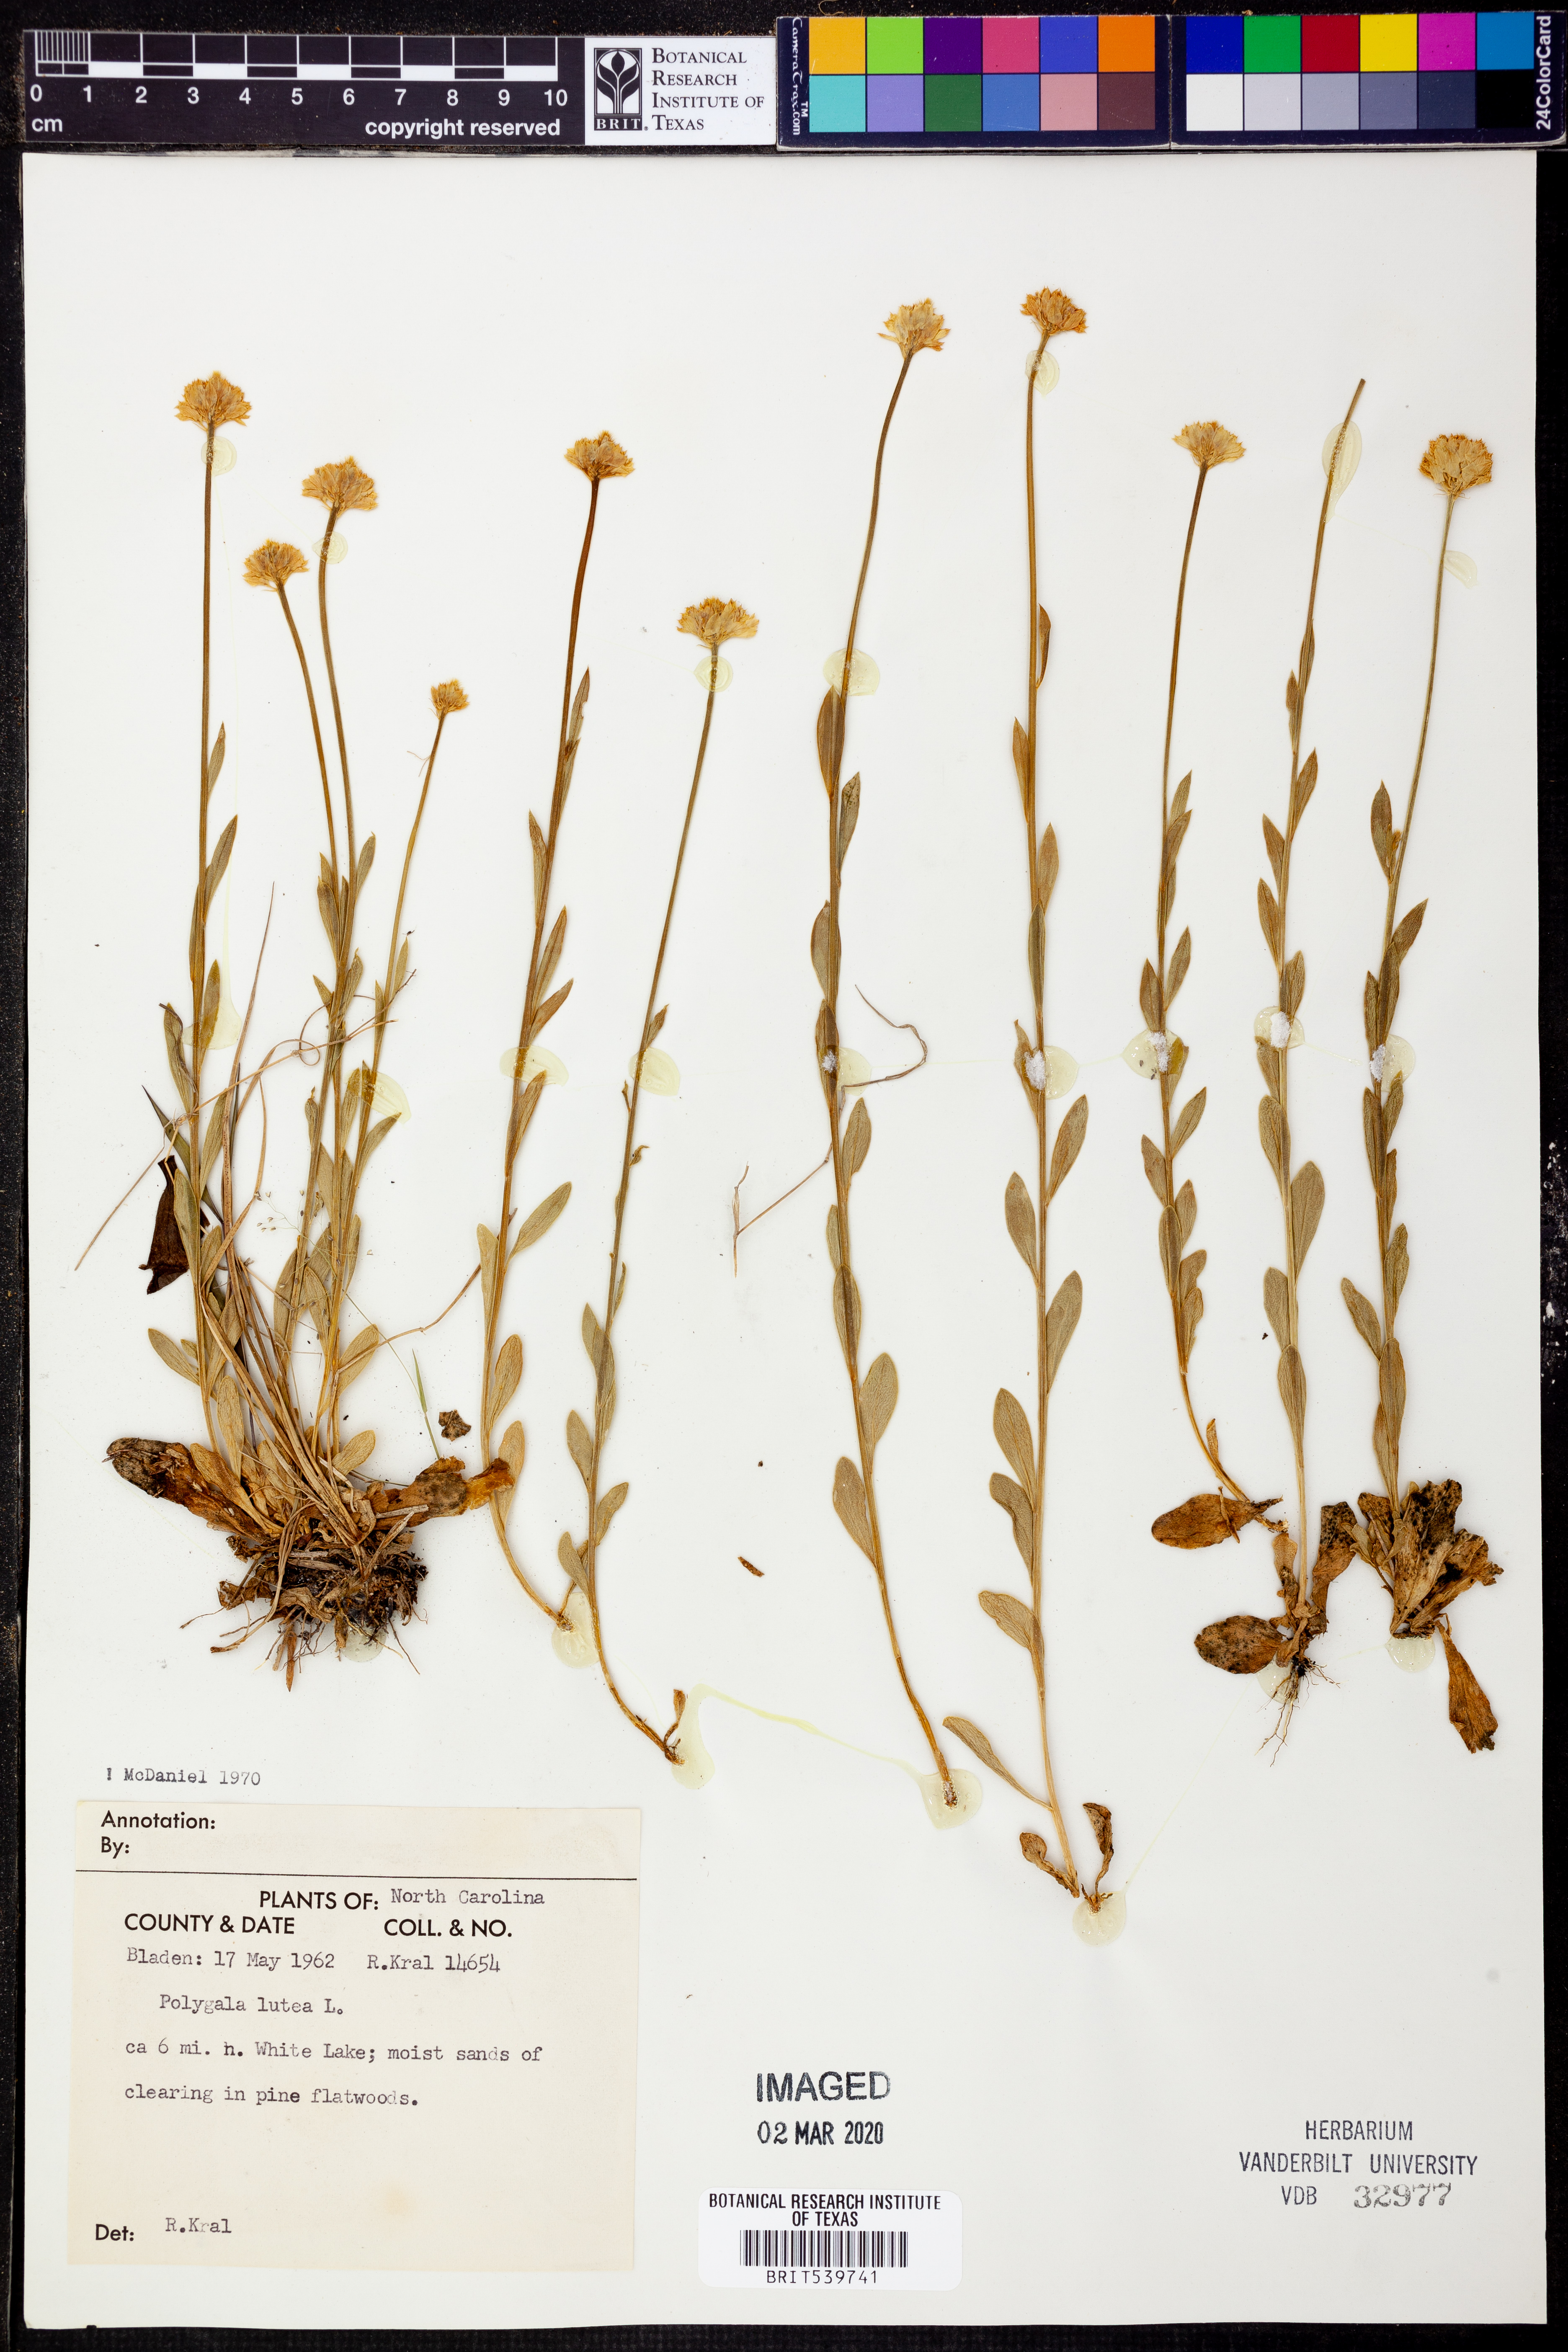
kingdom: Plantae
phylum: Tracheophyta
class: Magnoliopsida
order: Fabales
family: Polygalaceae
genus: Polygala
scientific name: Polygala lutea
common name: Orange milkwort
